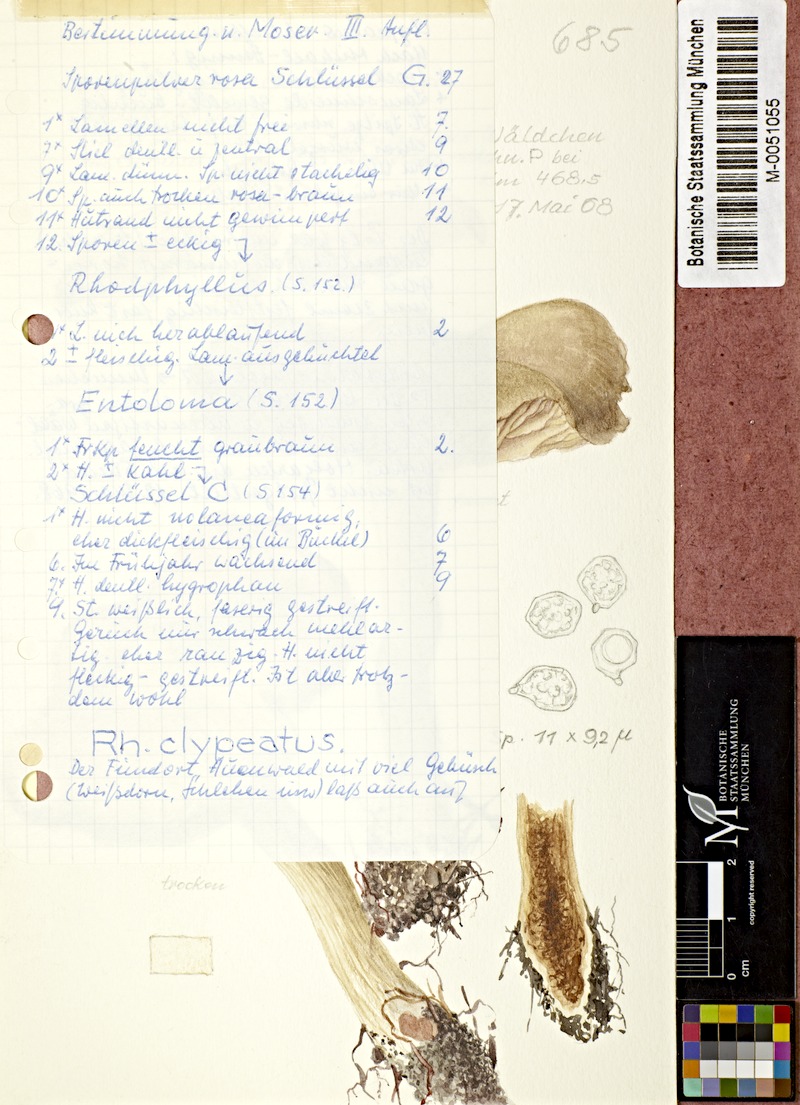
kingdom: Fungi
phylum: Basidiomycota
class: Agaricomycetes
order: Agaricales
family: Entolomataceae
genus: Entoloma
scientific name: Entoloma clypeatum
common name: Shield pinkgill
